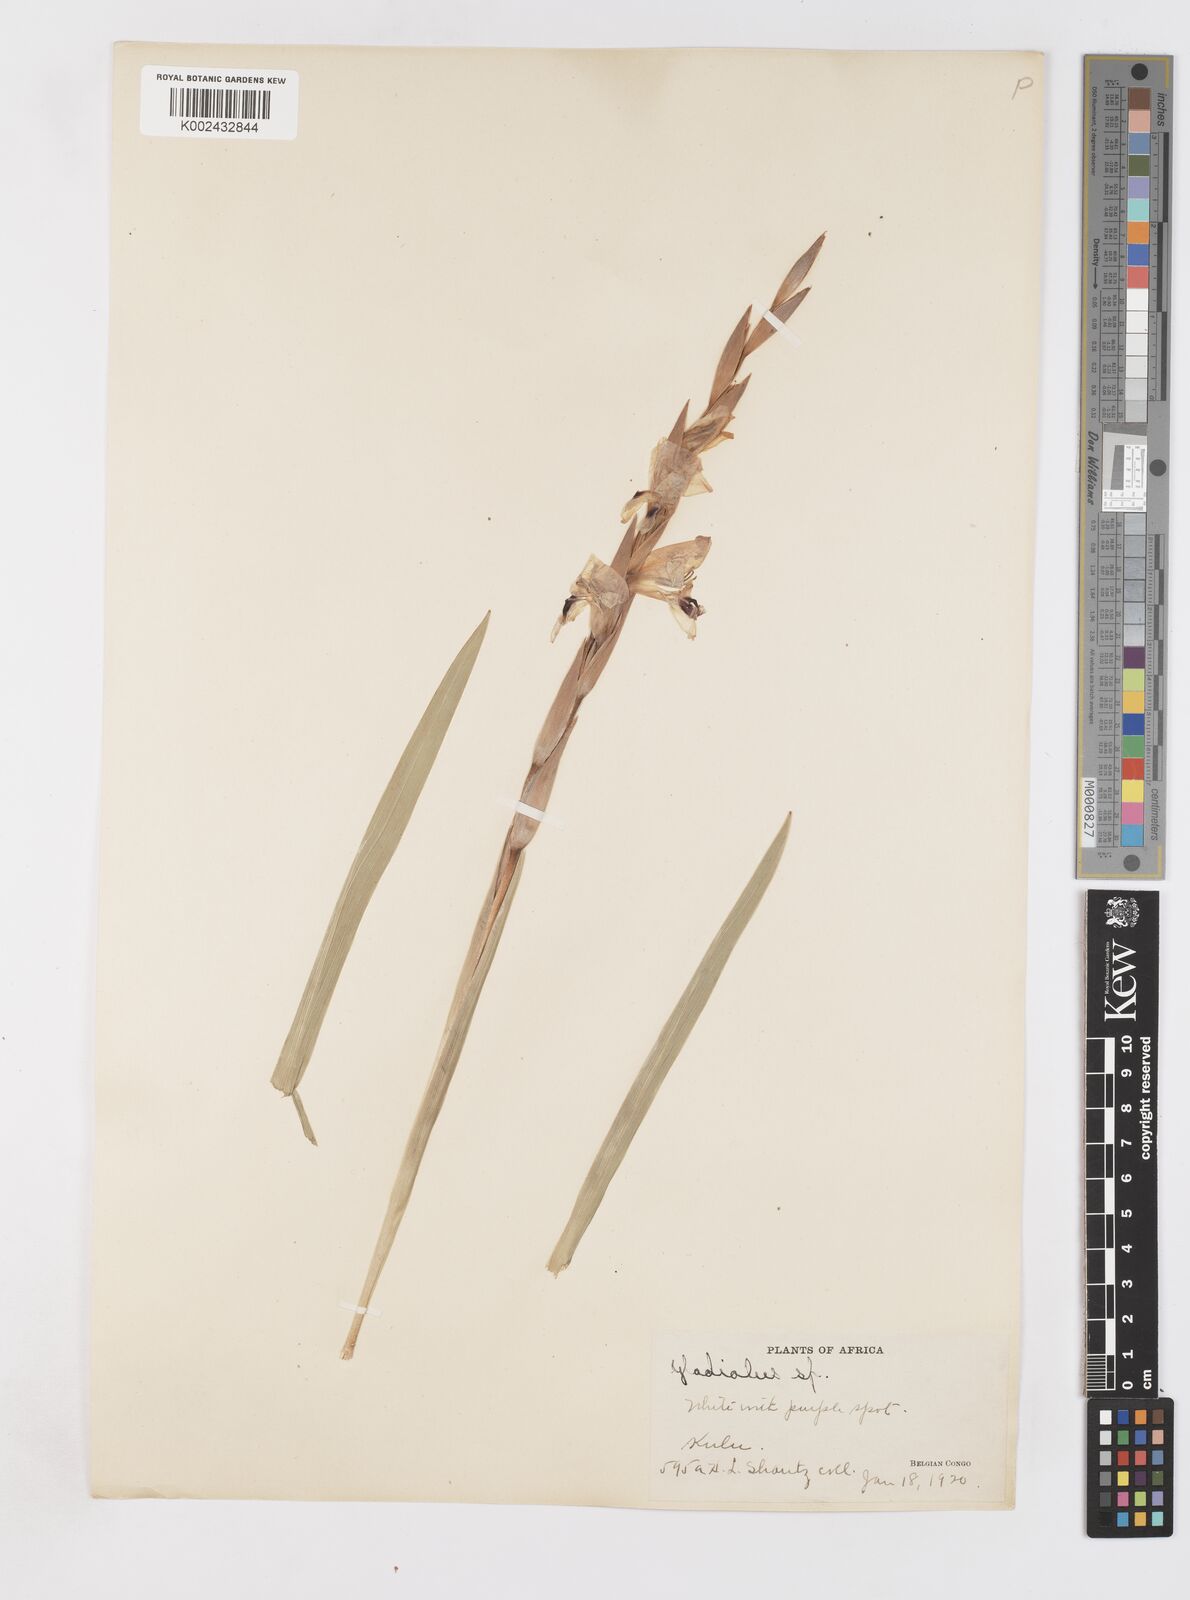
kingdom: Plantae
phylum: Tracheophyta
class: Liliopsida
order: Asparagales
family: Iridaceae
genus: Gladiolus
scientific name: Gladiolus gregarius
